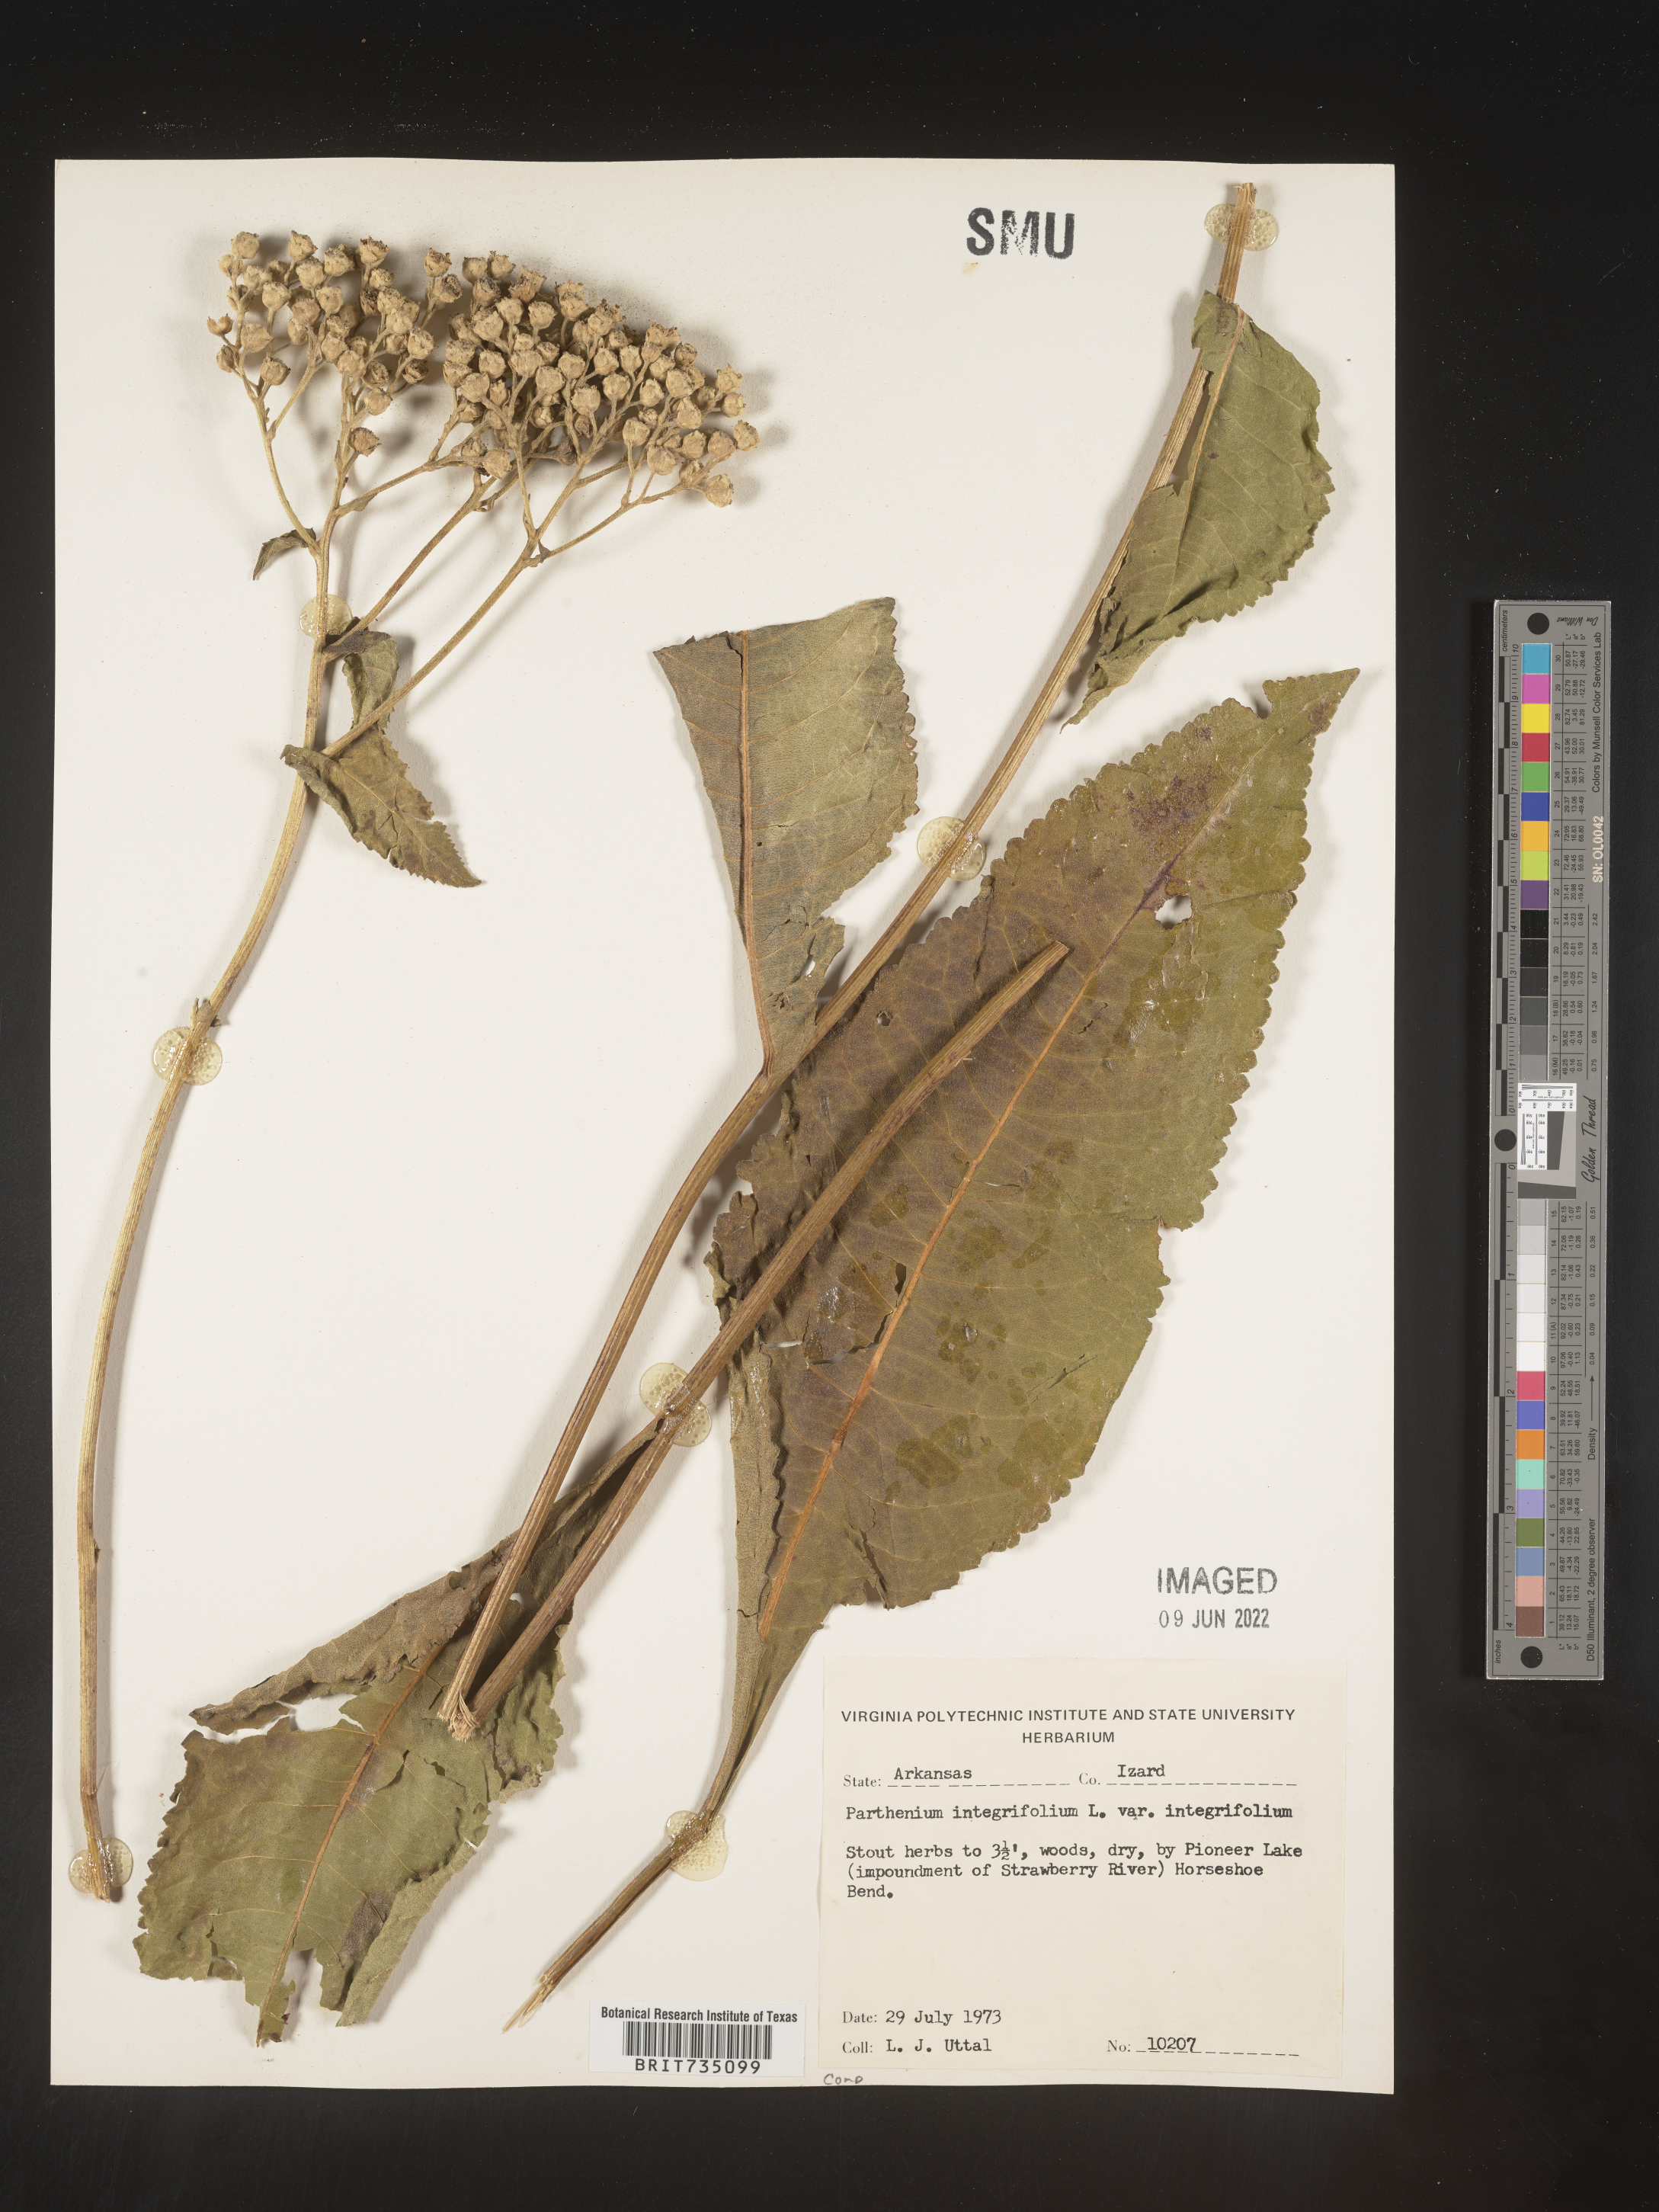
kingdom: Plantae
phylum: Tracheophyta
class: Magnoliopsida
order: Asterales
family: Asteraceae
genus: Parthenium
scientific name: Parthenium integrifolium
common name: American feverfew
